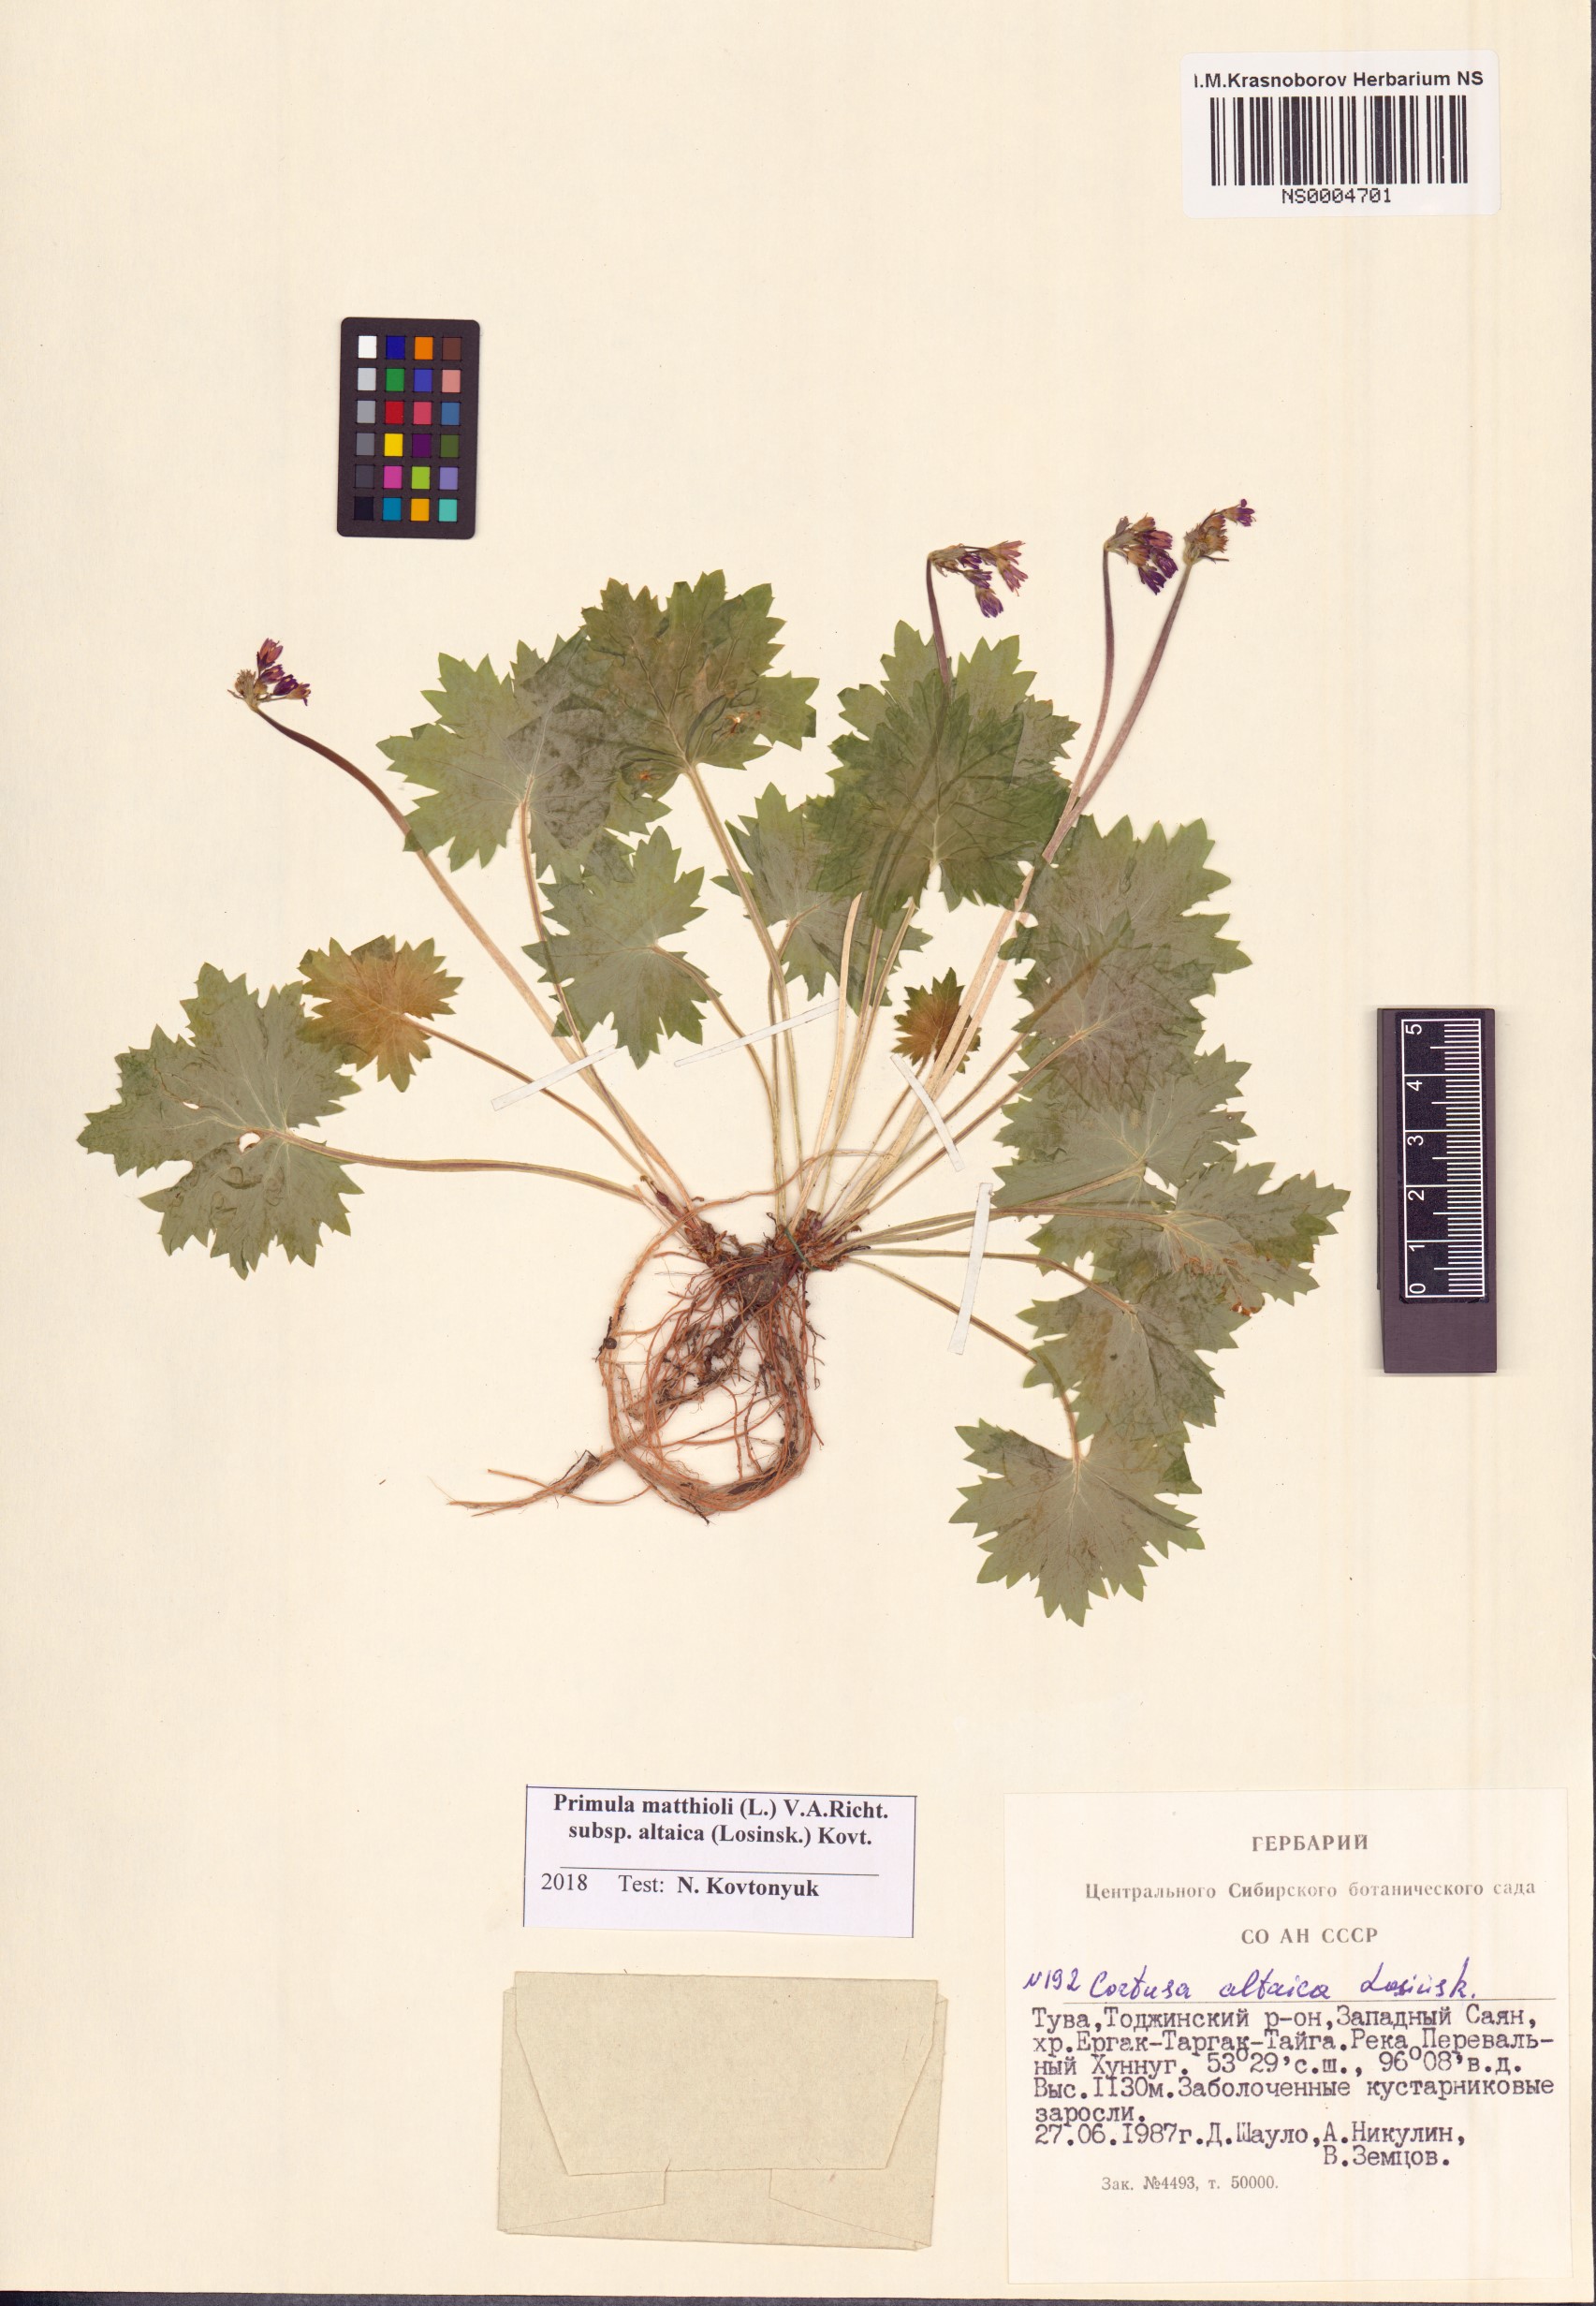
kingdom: Plantae
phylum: Tracheophyta
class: Magnoliopsida
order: Ericales
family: Primulaceae
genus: Primula
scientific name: Primula matthioli
